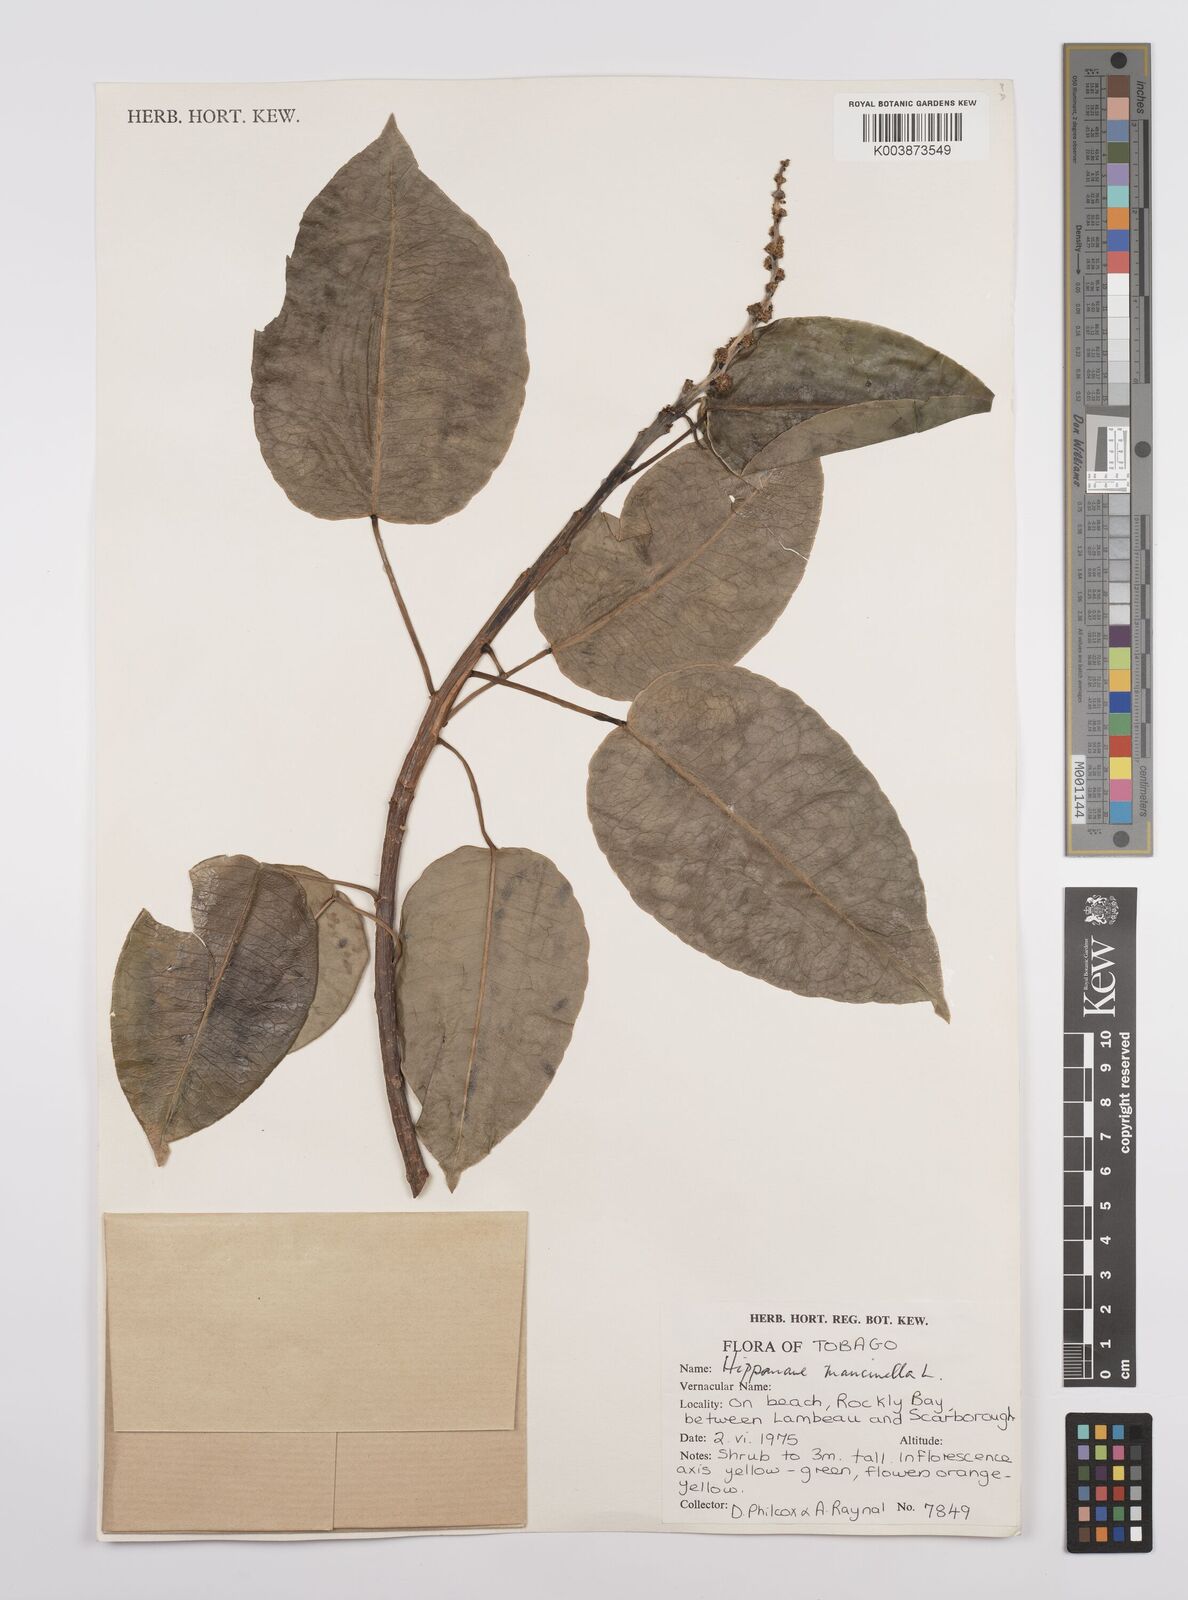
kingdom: Plantae
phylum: Tracheophyta
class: Magnoliopsida
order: Malpighiales
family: Euphorbiaceae
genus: Hippomane
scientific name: Hippomane mancinella
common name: Manchineel
